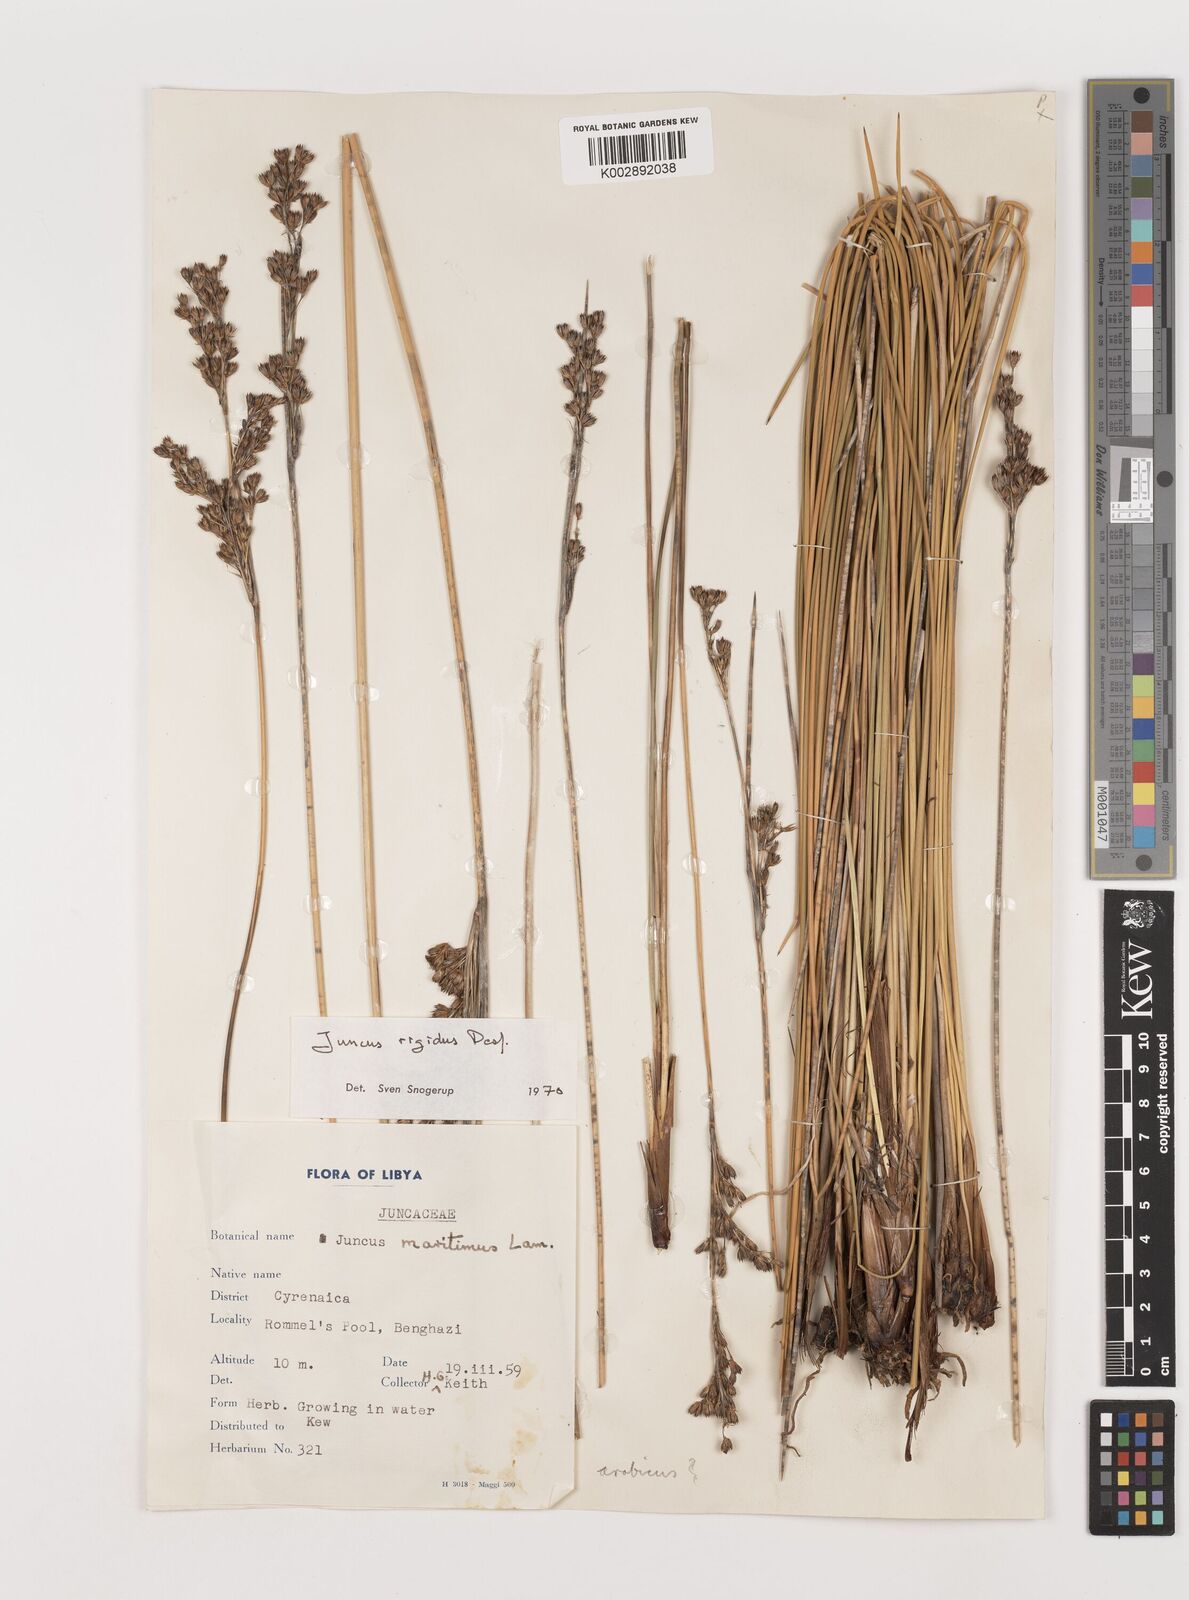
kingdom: Plantae
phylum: Tracheophyta
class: Liliopsida
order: Poales
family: Juncaceae
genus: Juncus
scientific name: Juncus rigidus
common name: Hard sea rush
